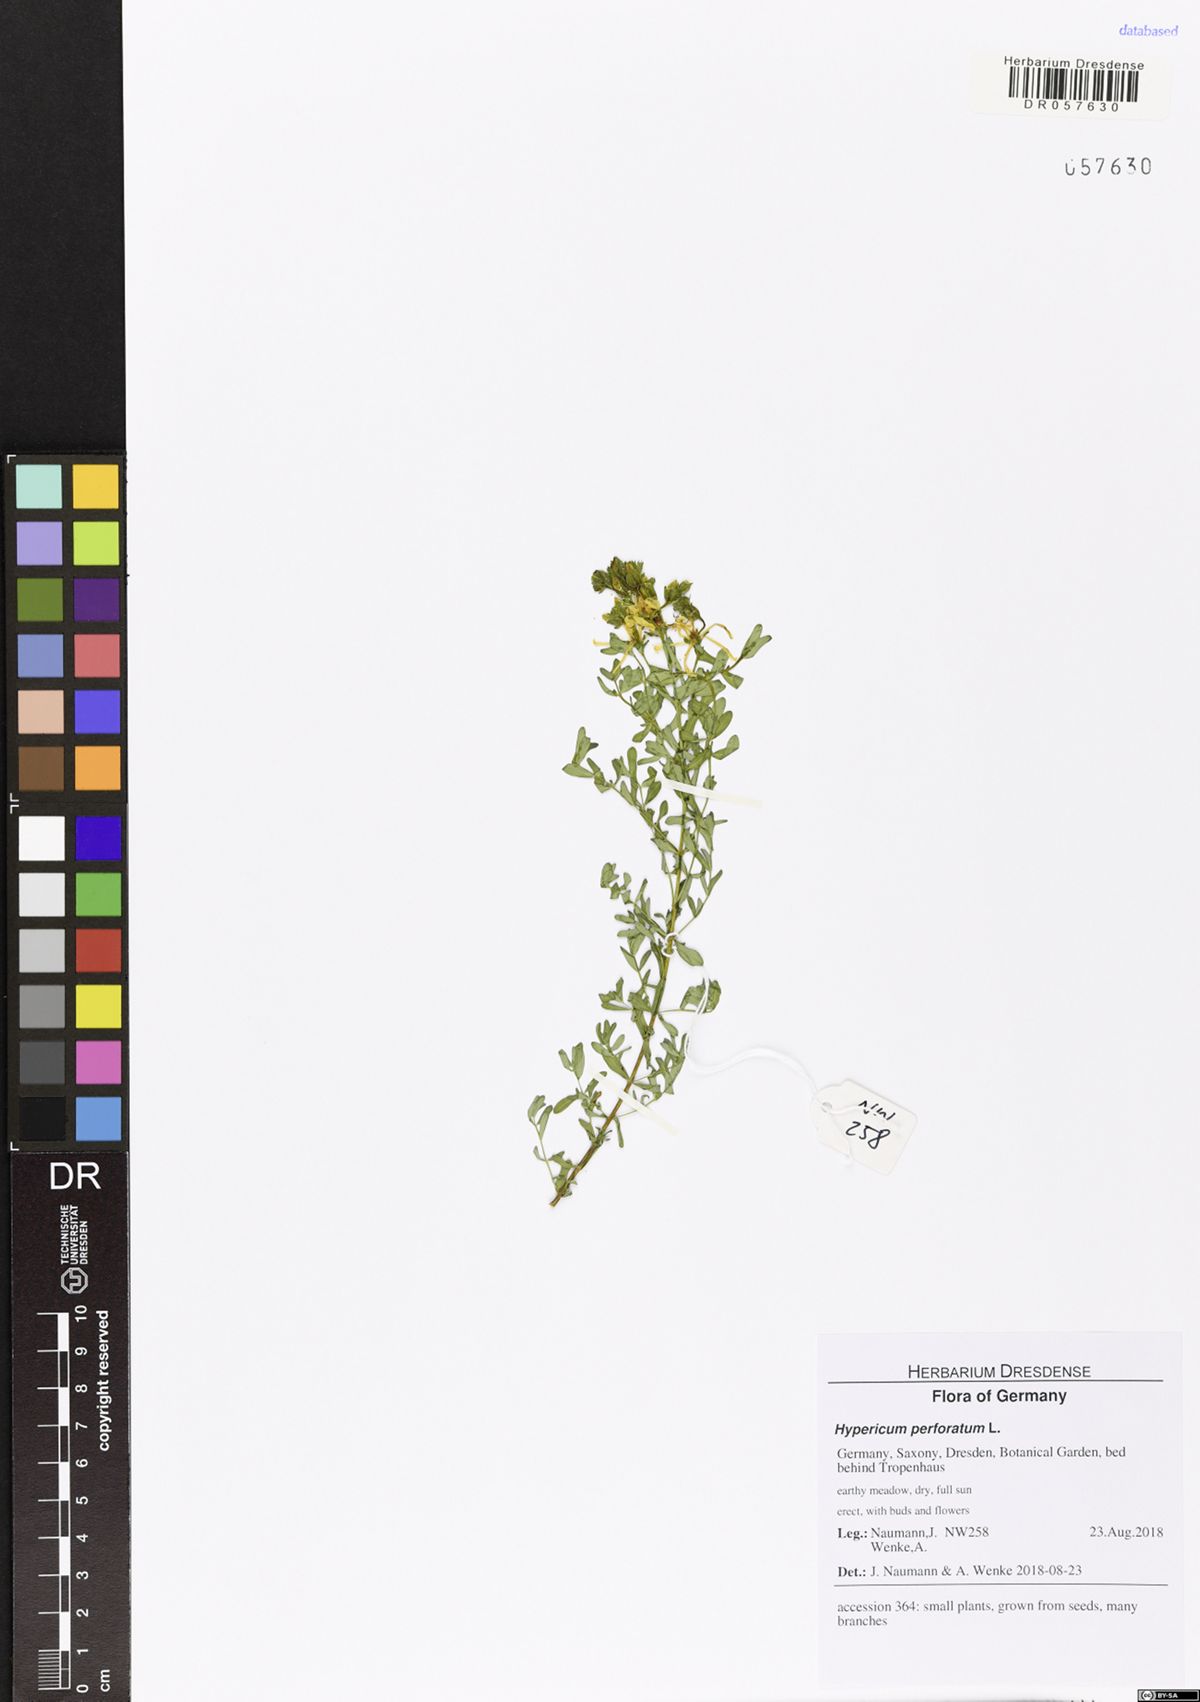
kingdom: Plantae
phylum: Tracheophyta
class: Magnoliopsida
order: Malpighiales
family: Hypericaceae
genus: Hypericum
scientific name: Hypericum perforatum
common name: Common st. johnswort
